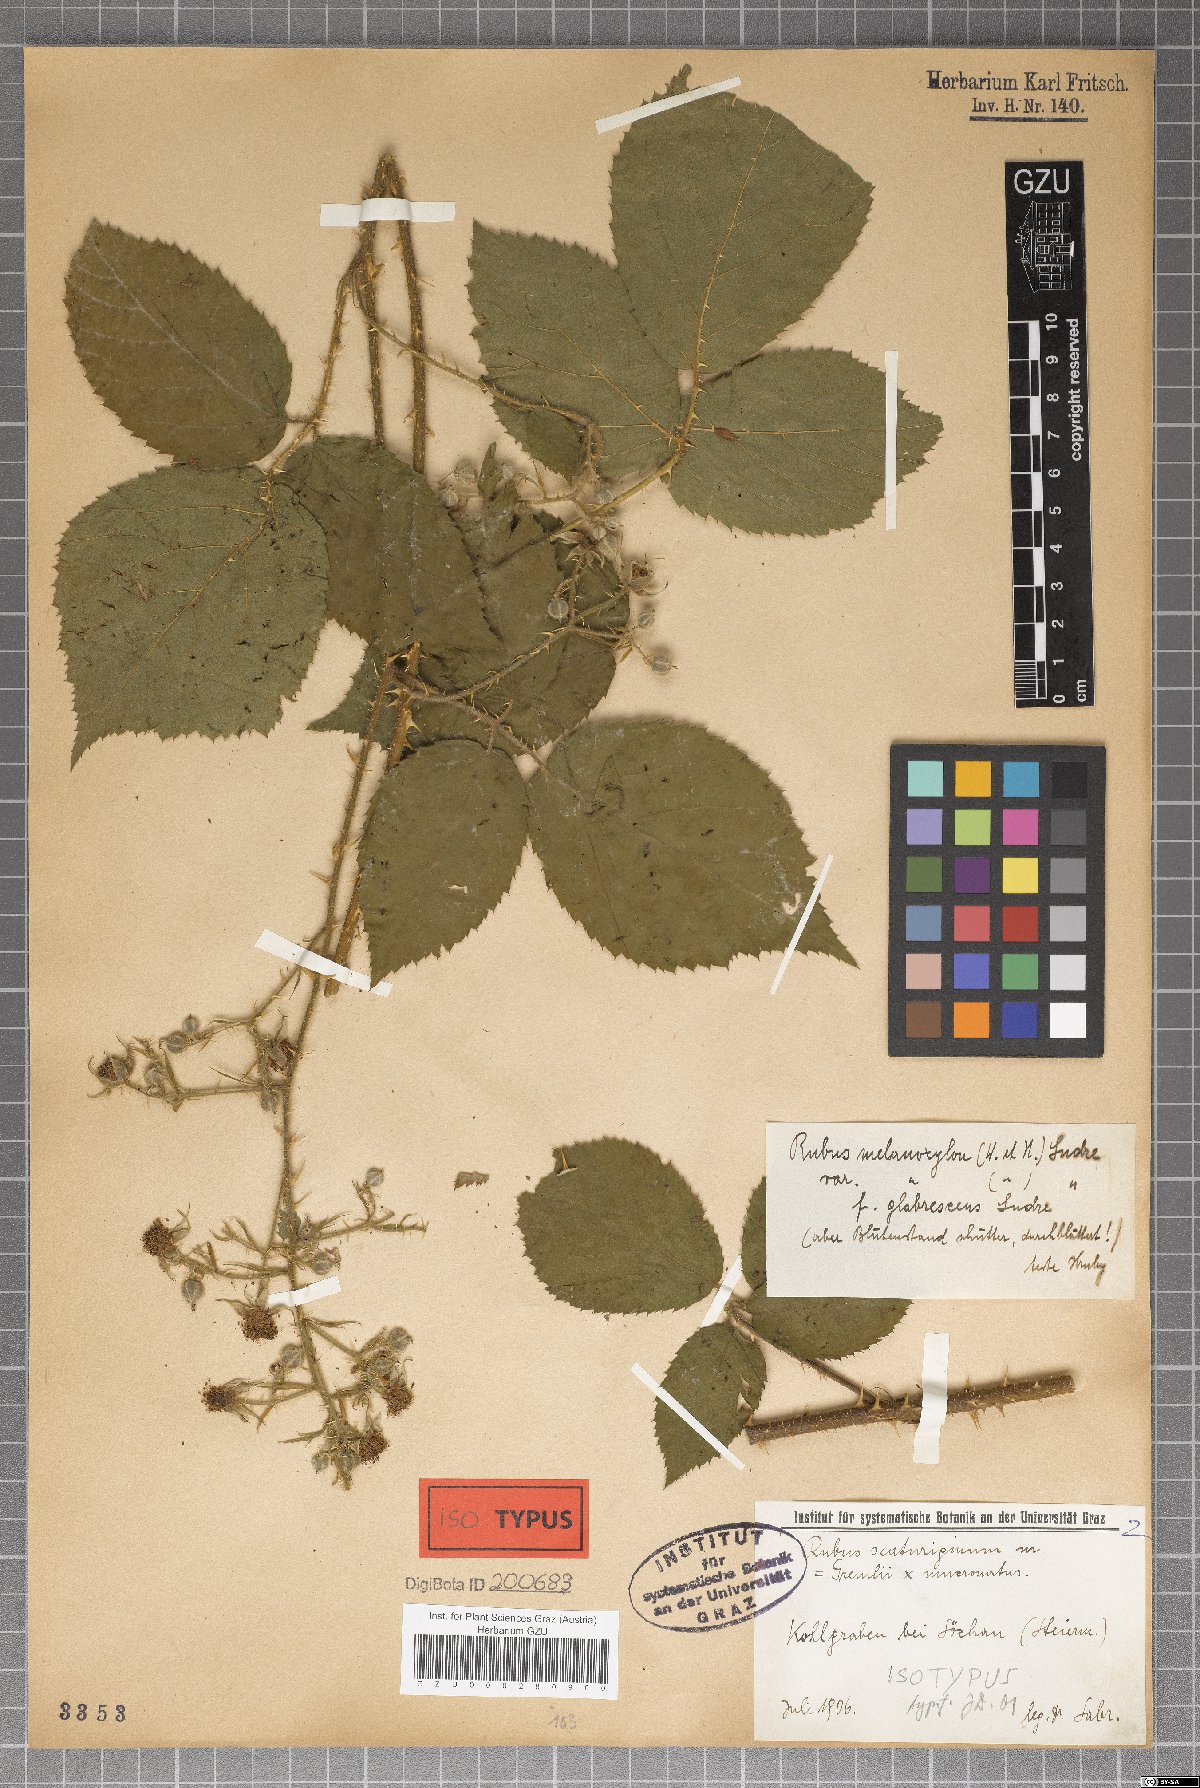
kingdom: Plantae
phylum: Tracheophyta
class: Magnoliopsida
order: Rosales
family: Rosaceae
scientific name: Rosaceae
